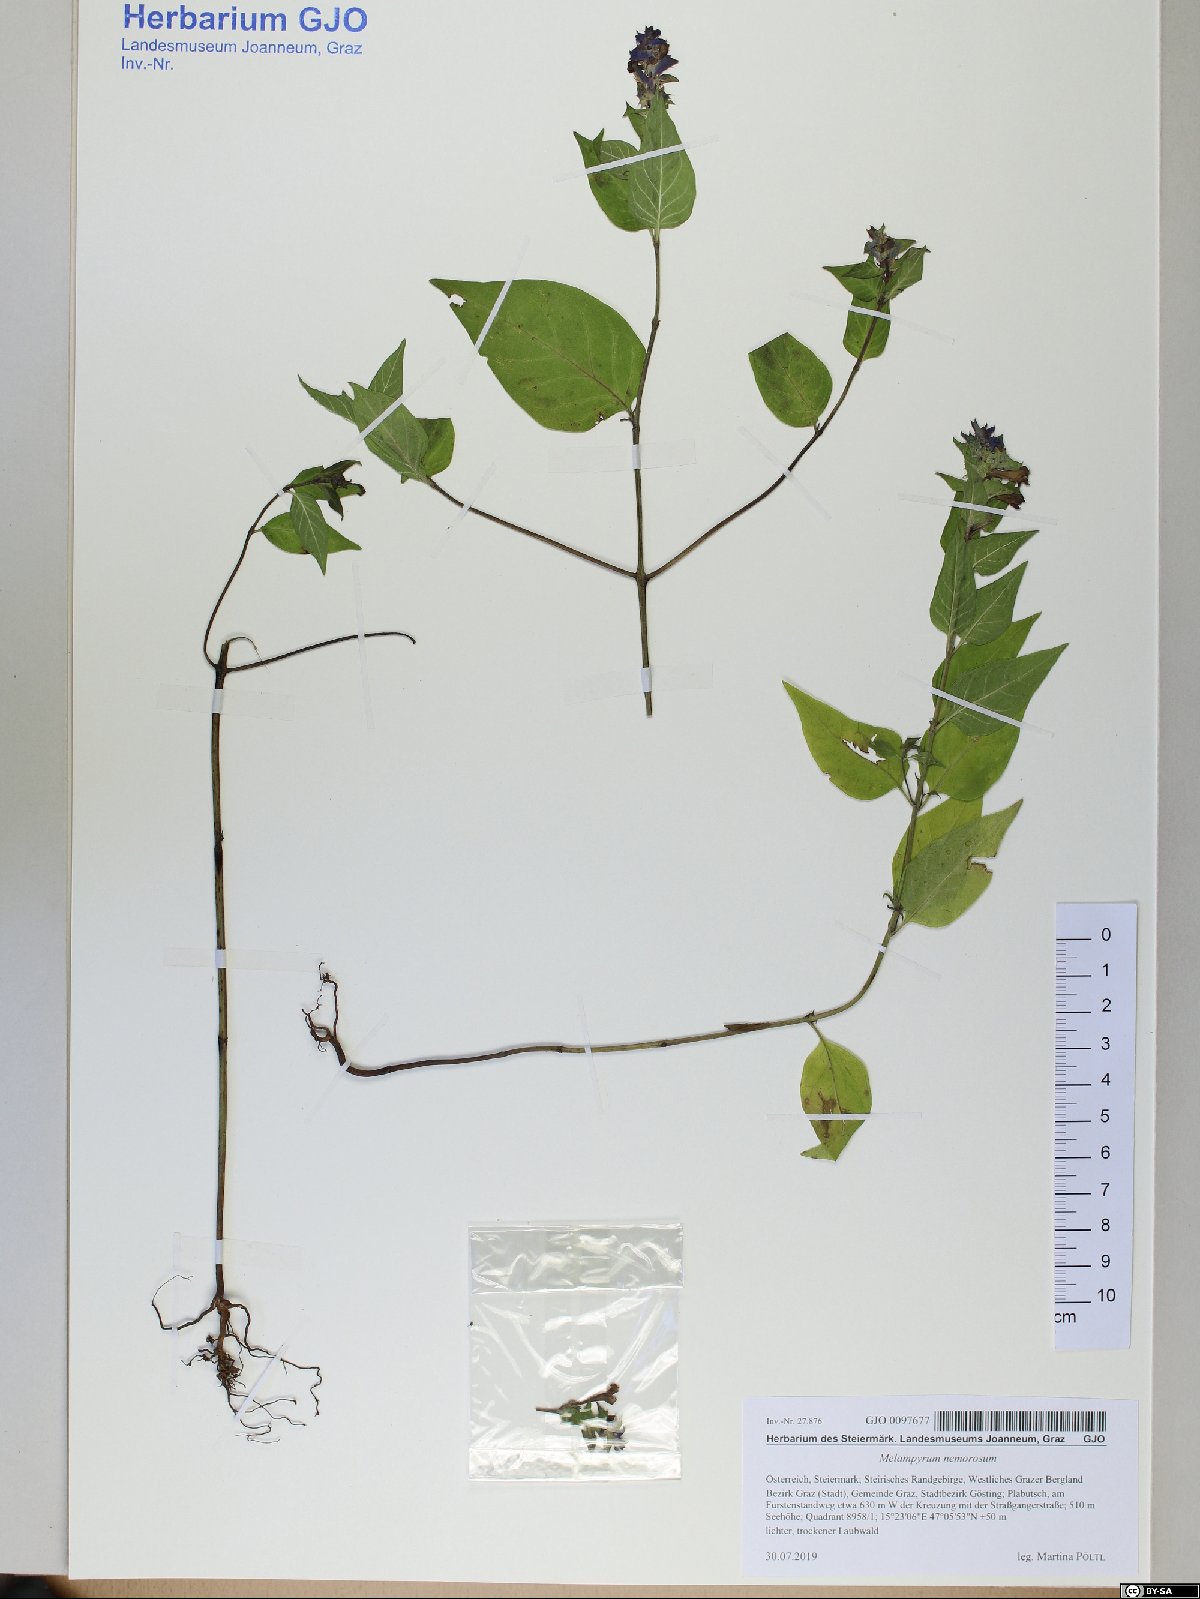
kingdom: Plantae
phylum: Tracheophyta
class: Magnoliopsida
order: Lamiales
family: Orobanchaceae
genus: Melampyrum
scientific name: Melampyrum nemorosum
